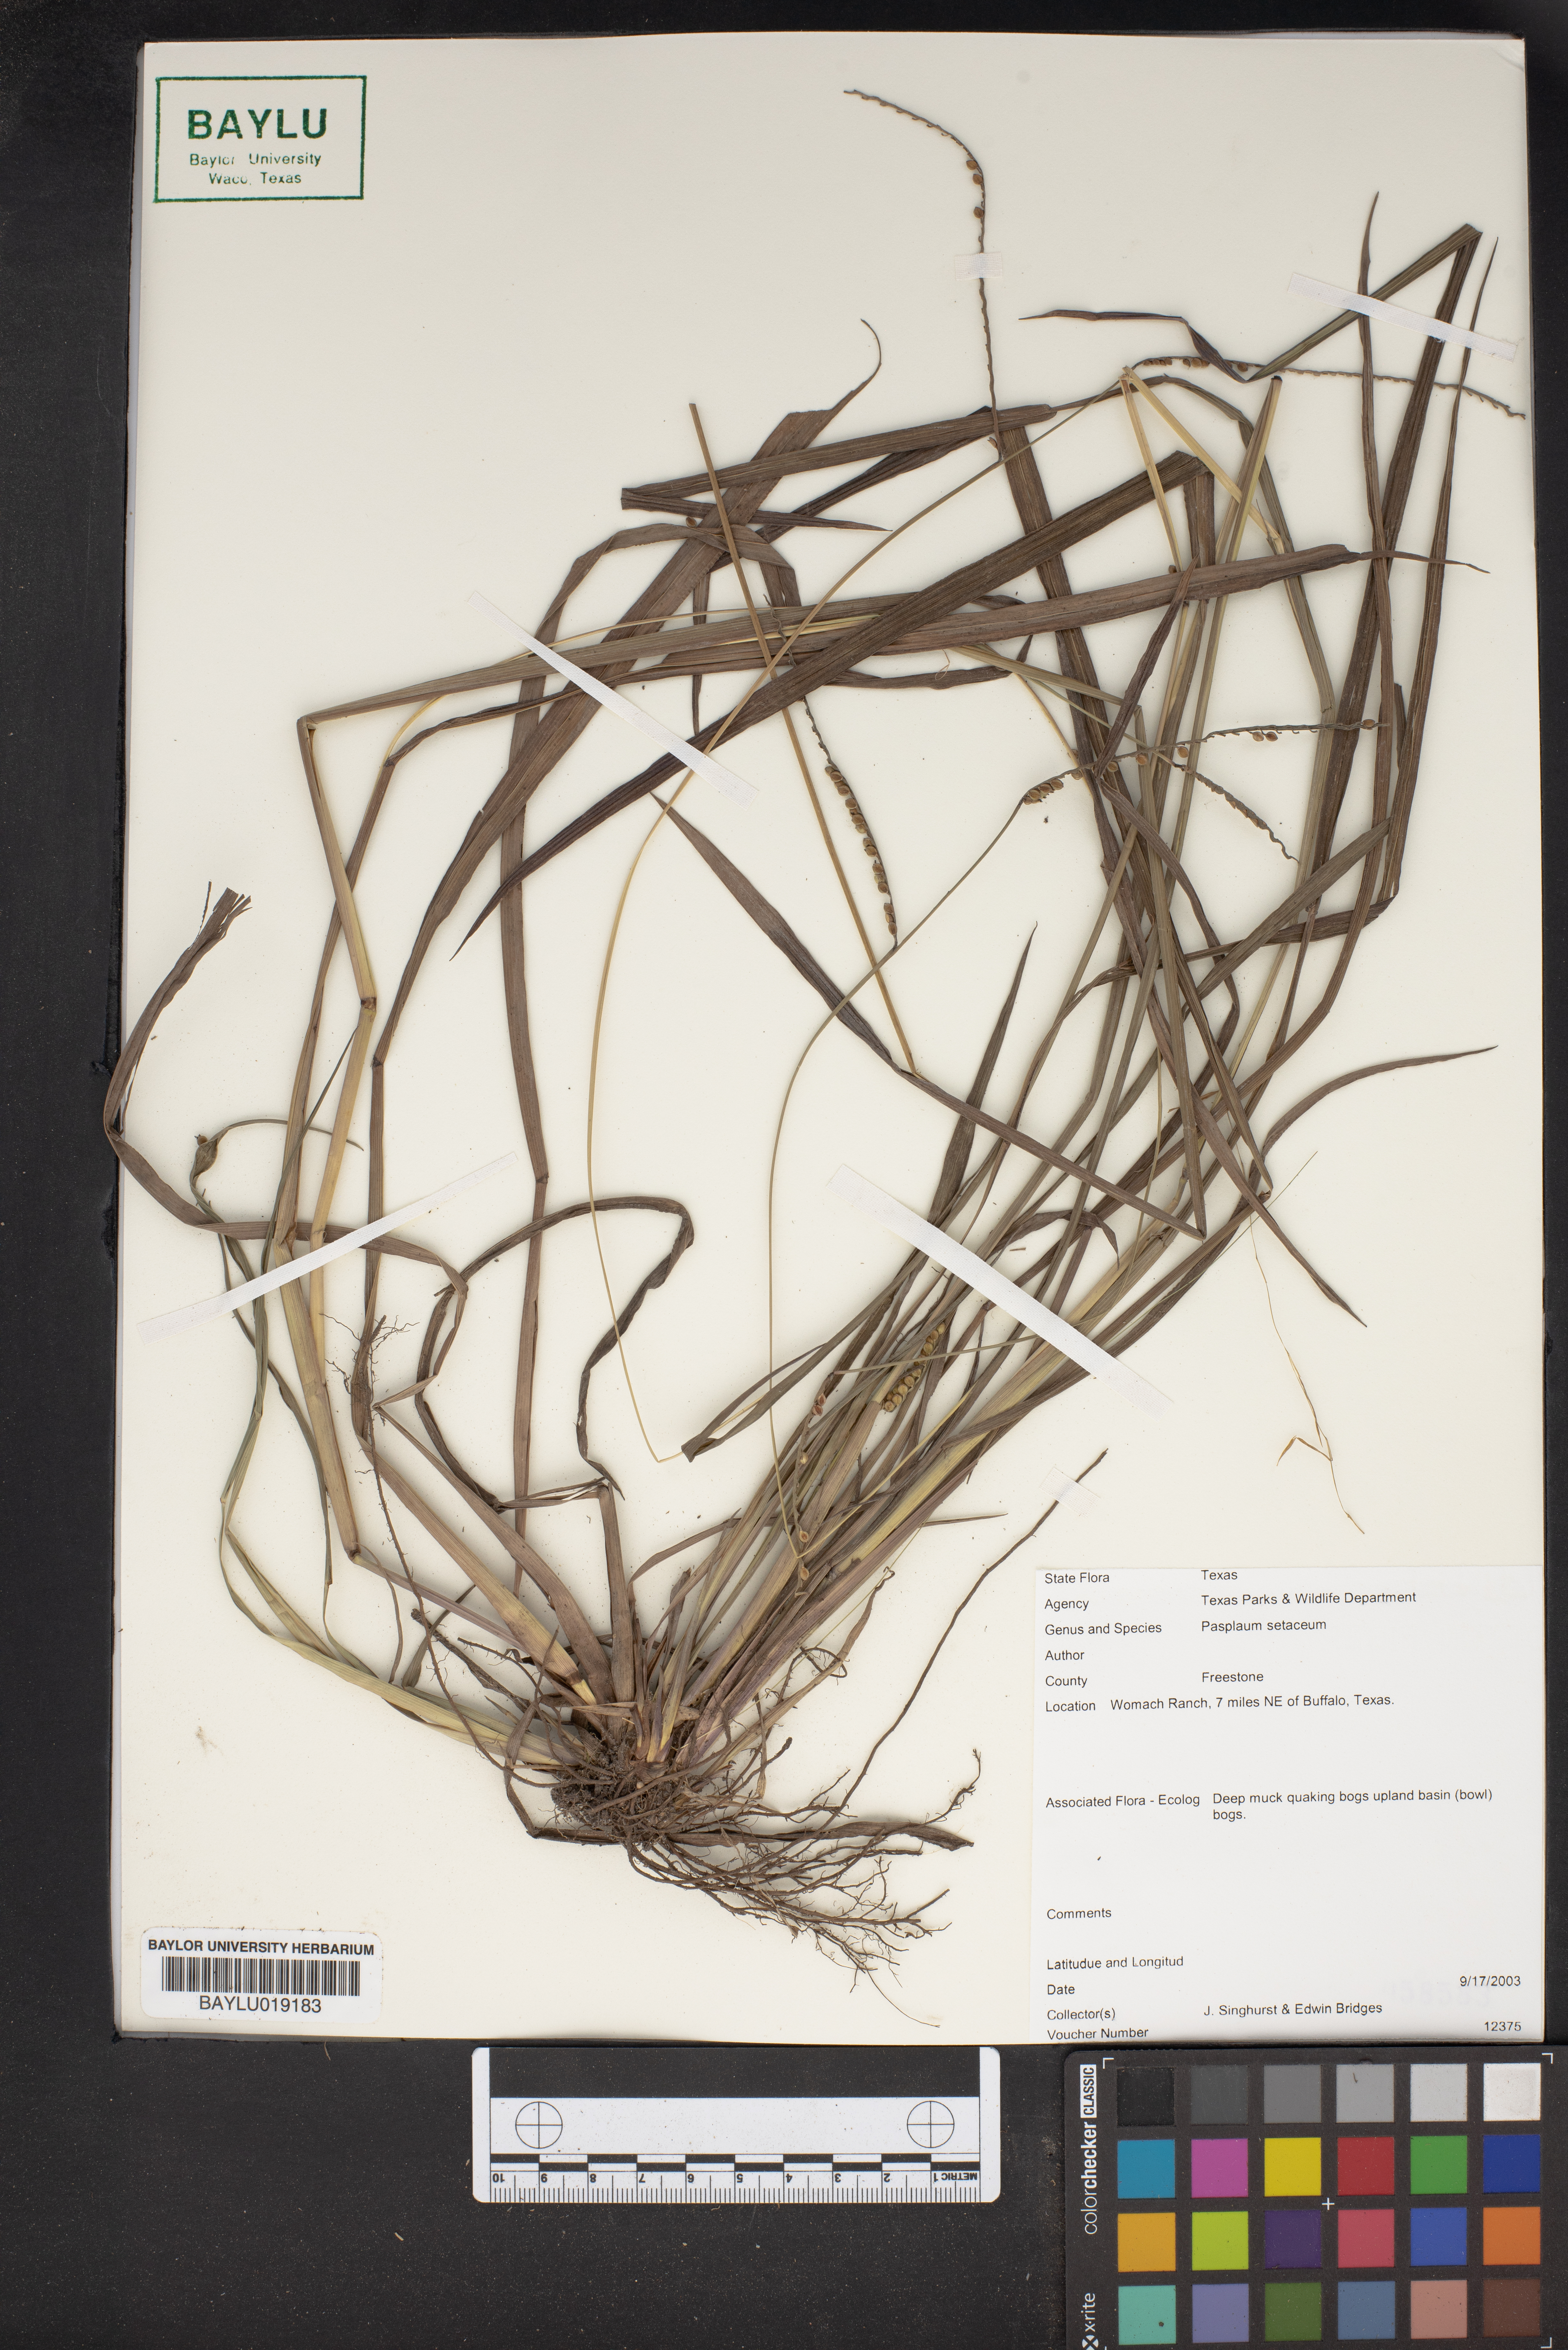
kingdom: Plantae
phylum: Tracheophyta
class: Liliopsida
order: Poales
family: Poaceae
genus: Paspalum
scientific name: Paspalum setaceum
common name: Slender paspalum
